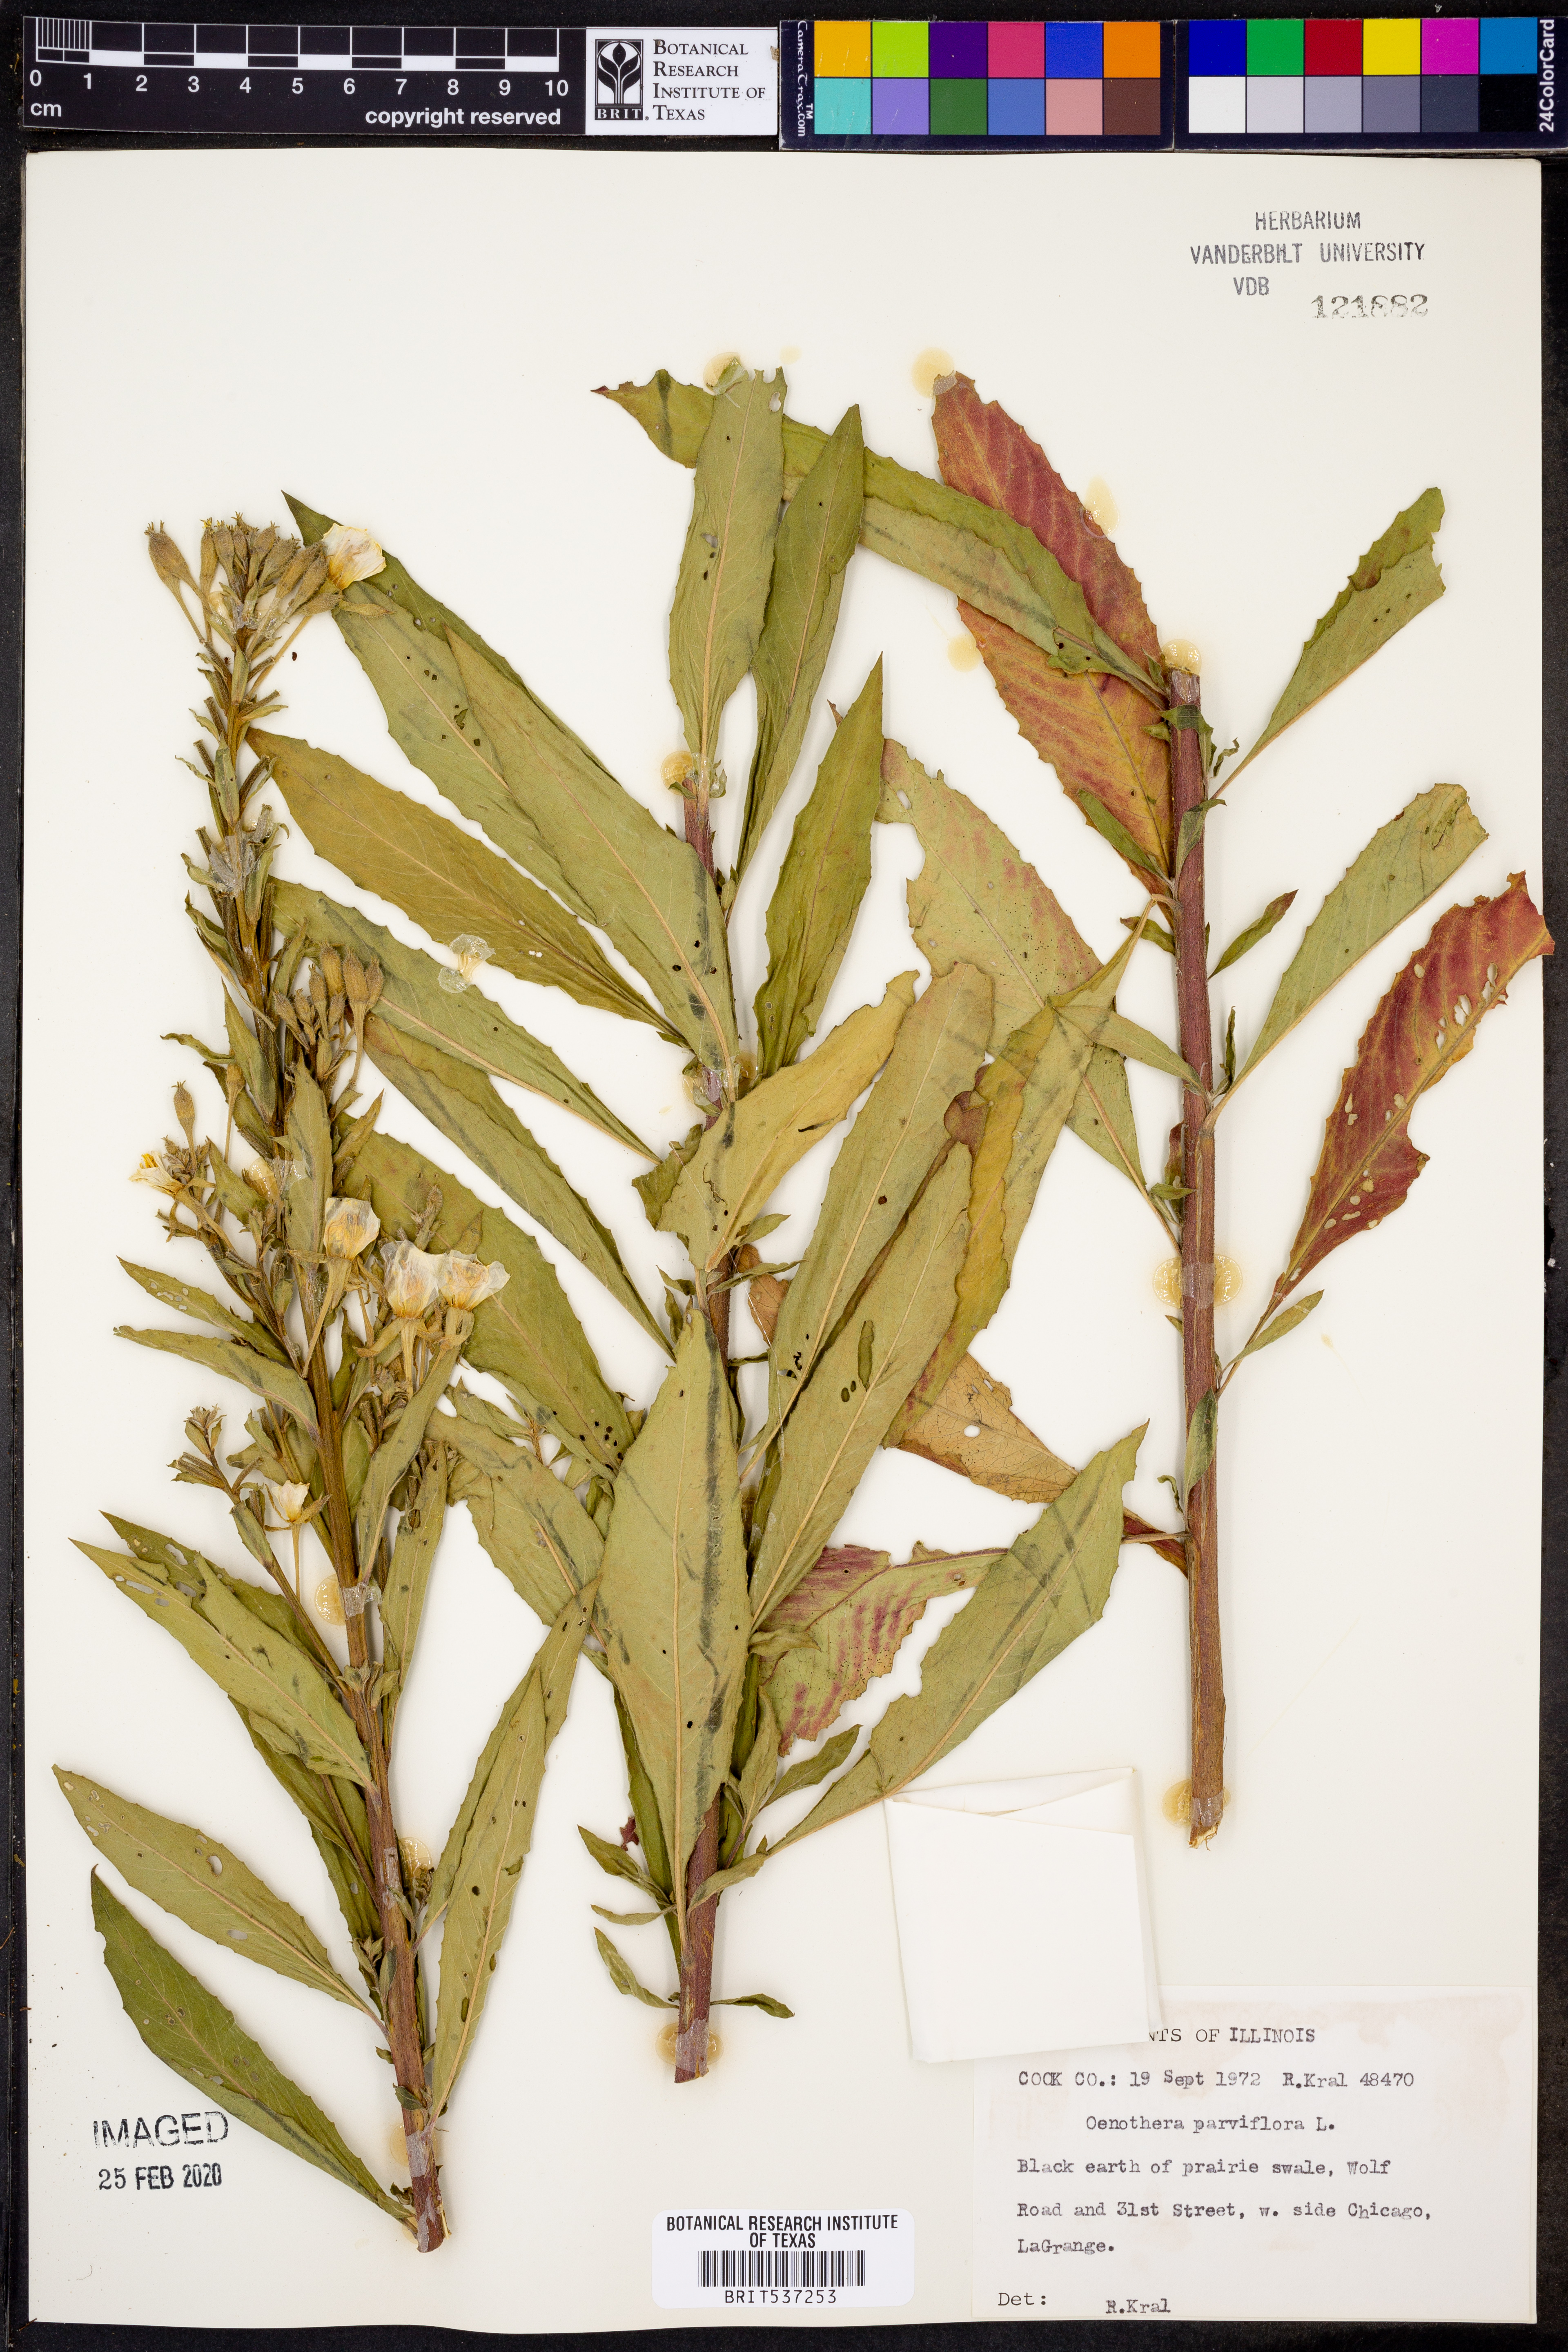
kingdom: Plantae
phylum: Tracheophyta
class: Magnoliopsida
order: Myrtales
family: Onagraceae
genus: Oenothera
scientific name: Oenothera parviflora
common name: Least evening-primrose
